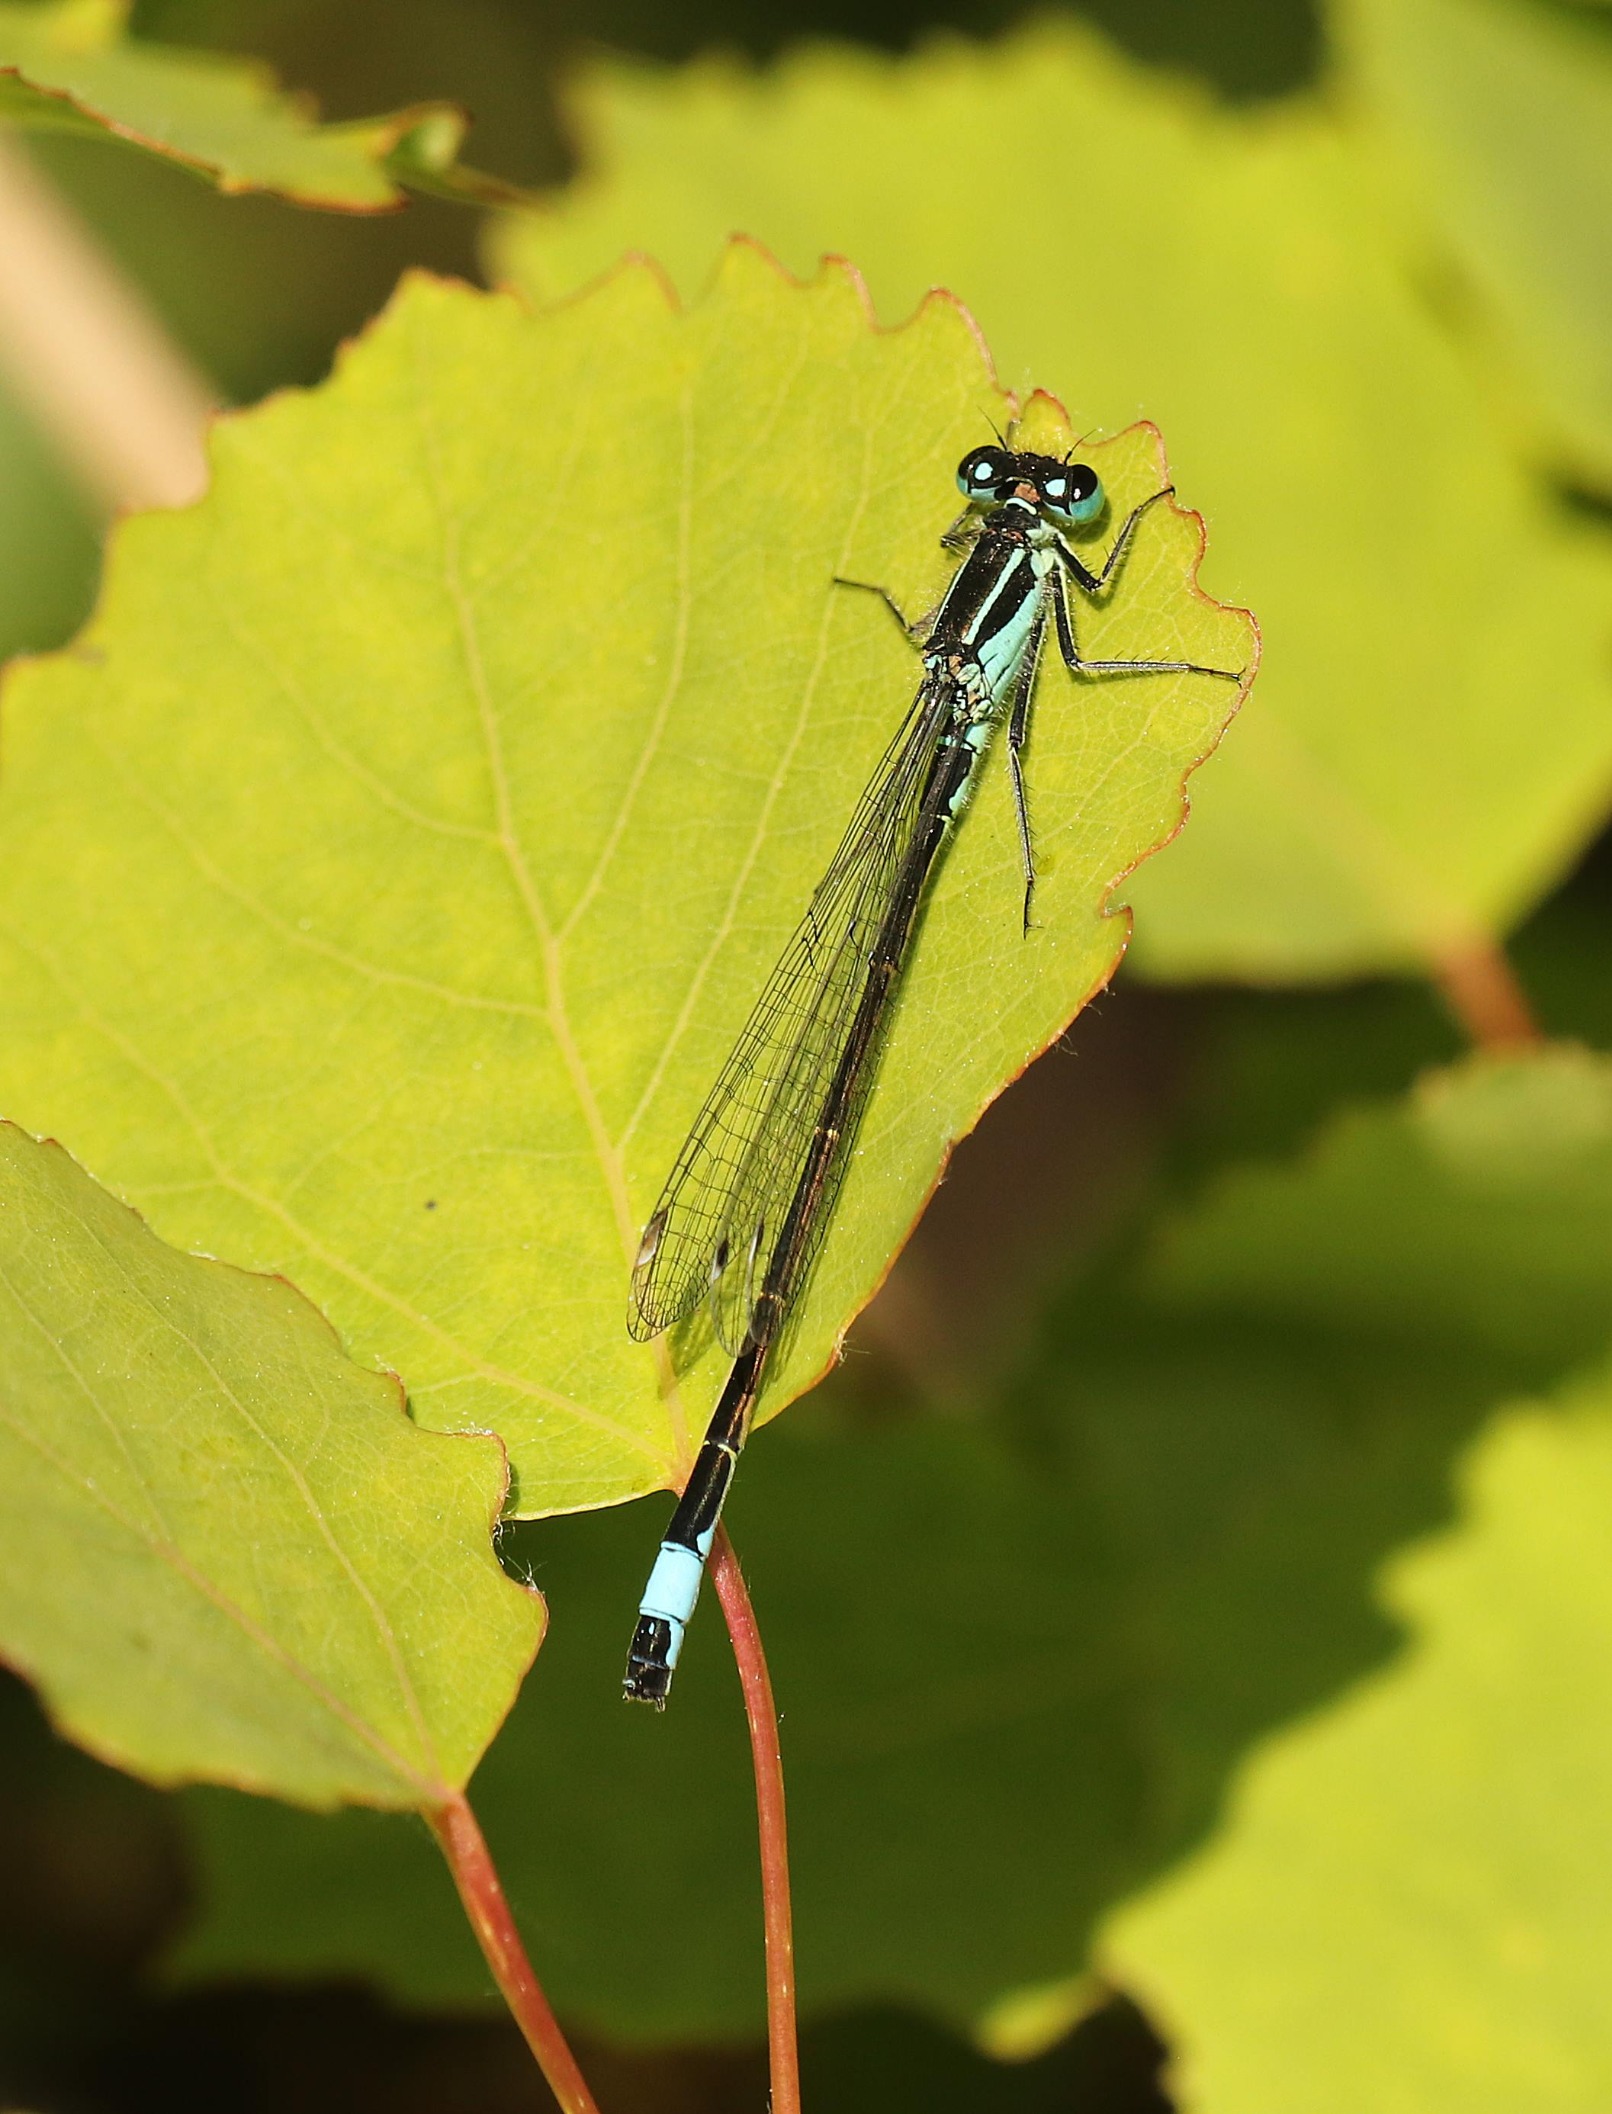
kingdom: Animalia
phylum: Arthropoda
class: Insecta
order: Odonata
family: Coenagrionidae
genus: Ischnura
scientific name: Ischnura elegans
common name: Stor farvevandnymfe
